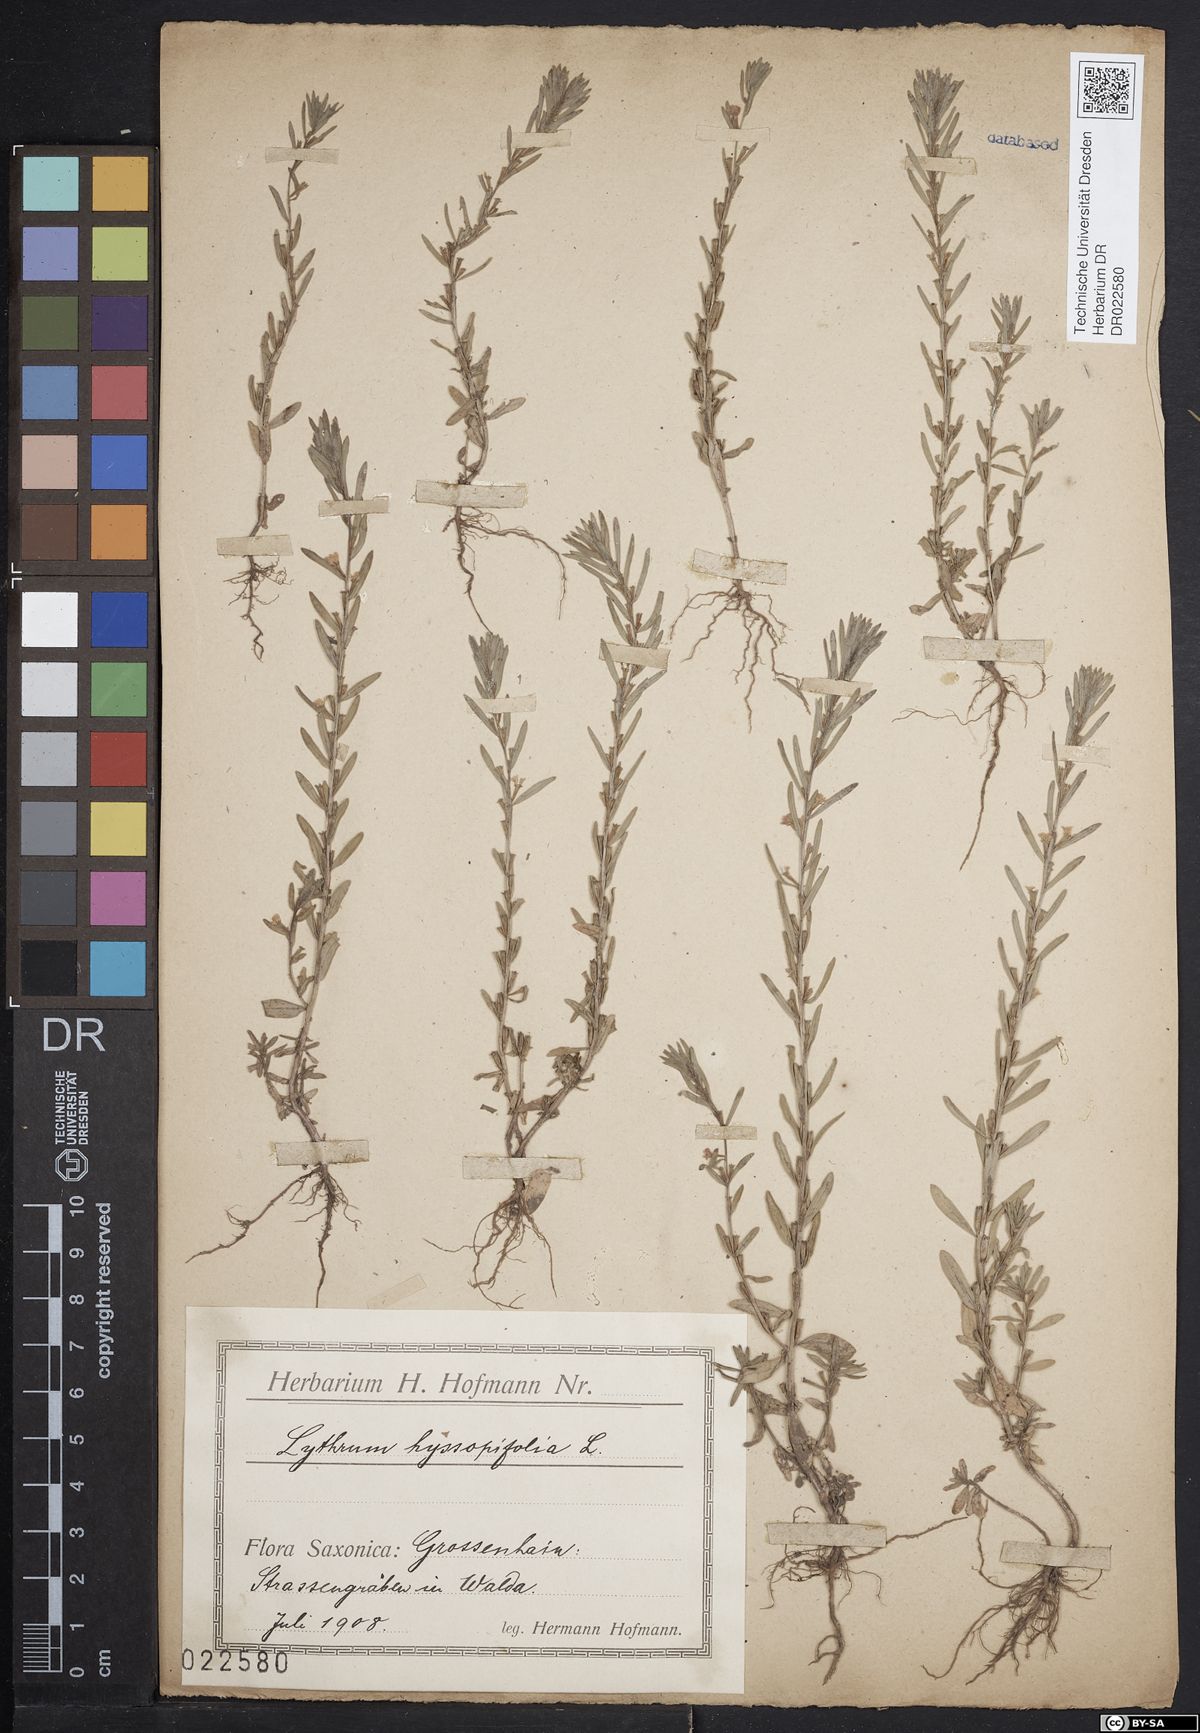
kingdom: Plantae
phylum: Tracheophyta
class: Magnoliopsida
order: Myrtales
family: Lythraceae
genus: Lythrum
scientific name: Lythrum hyssopifolia
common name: Grass-poly
